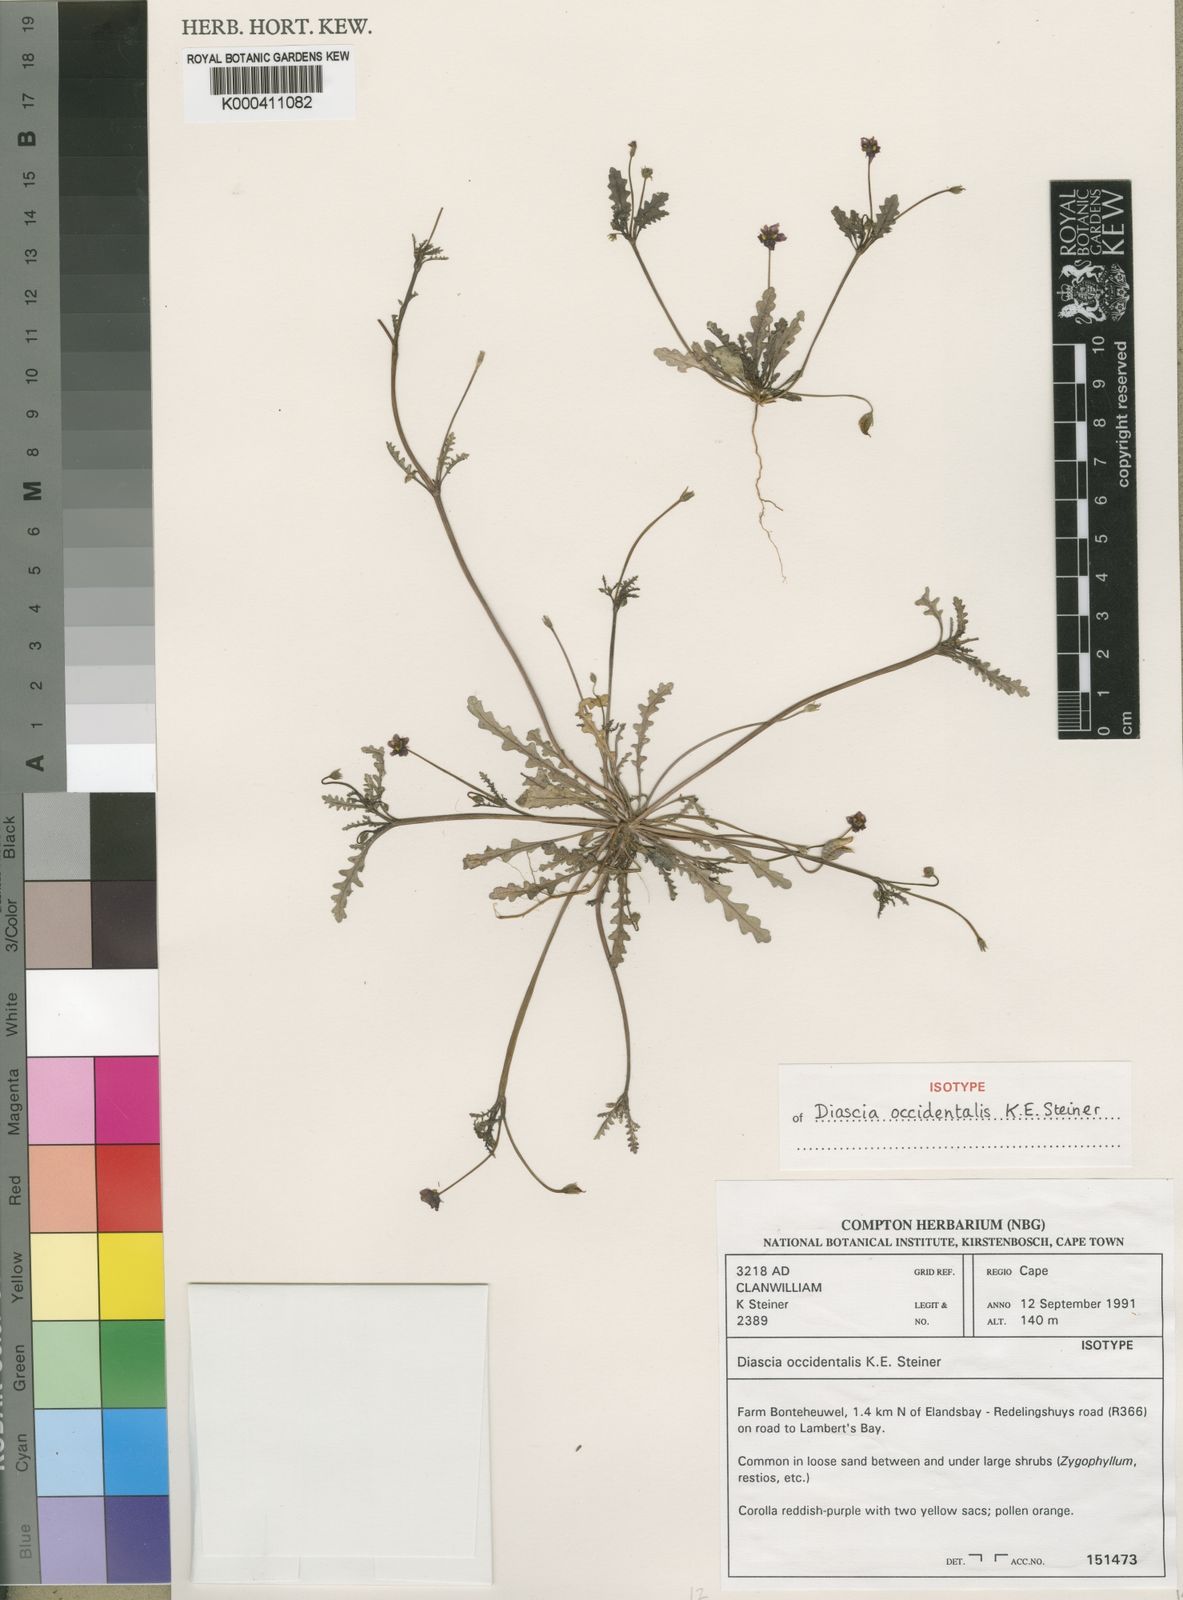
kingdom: Plantae
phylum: Tracheophyta
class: Magnoliopsida
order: Lamiales
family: Scrophulariaceae
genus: Diascia
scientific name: Diascia
